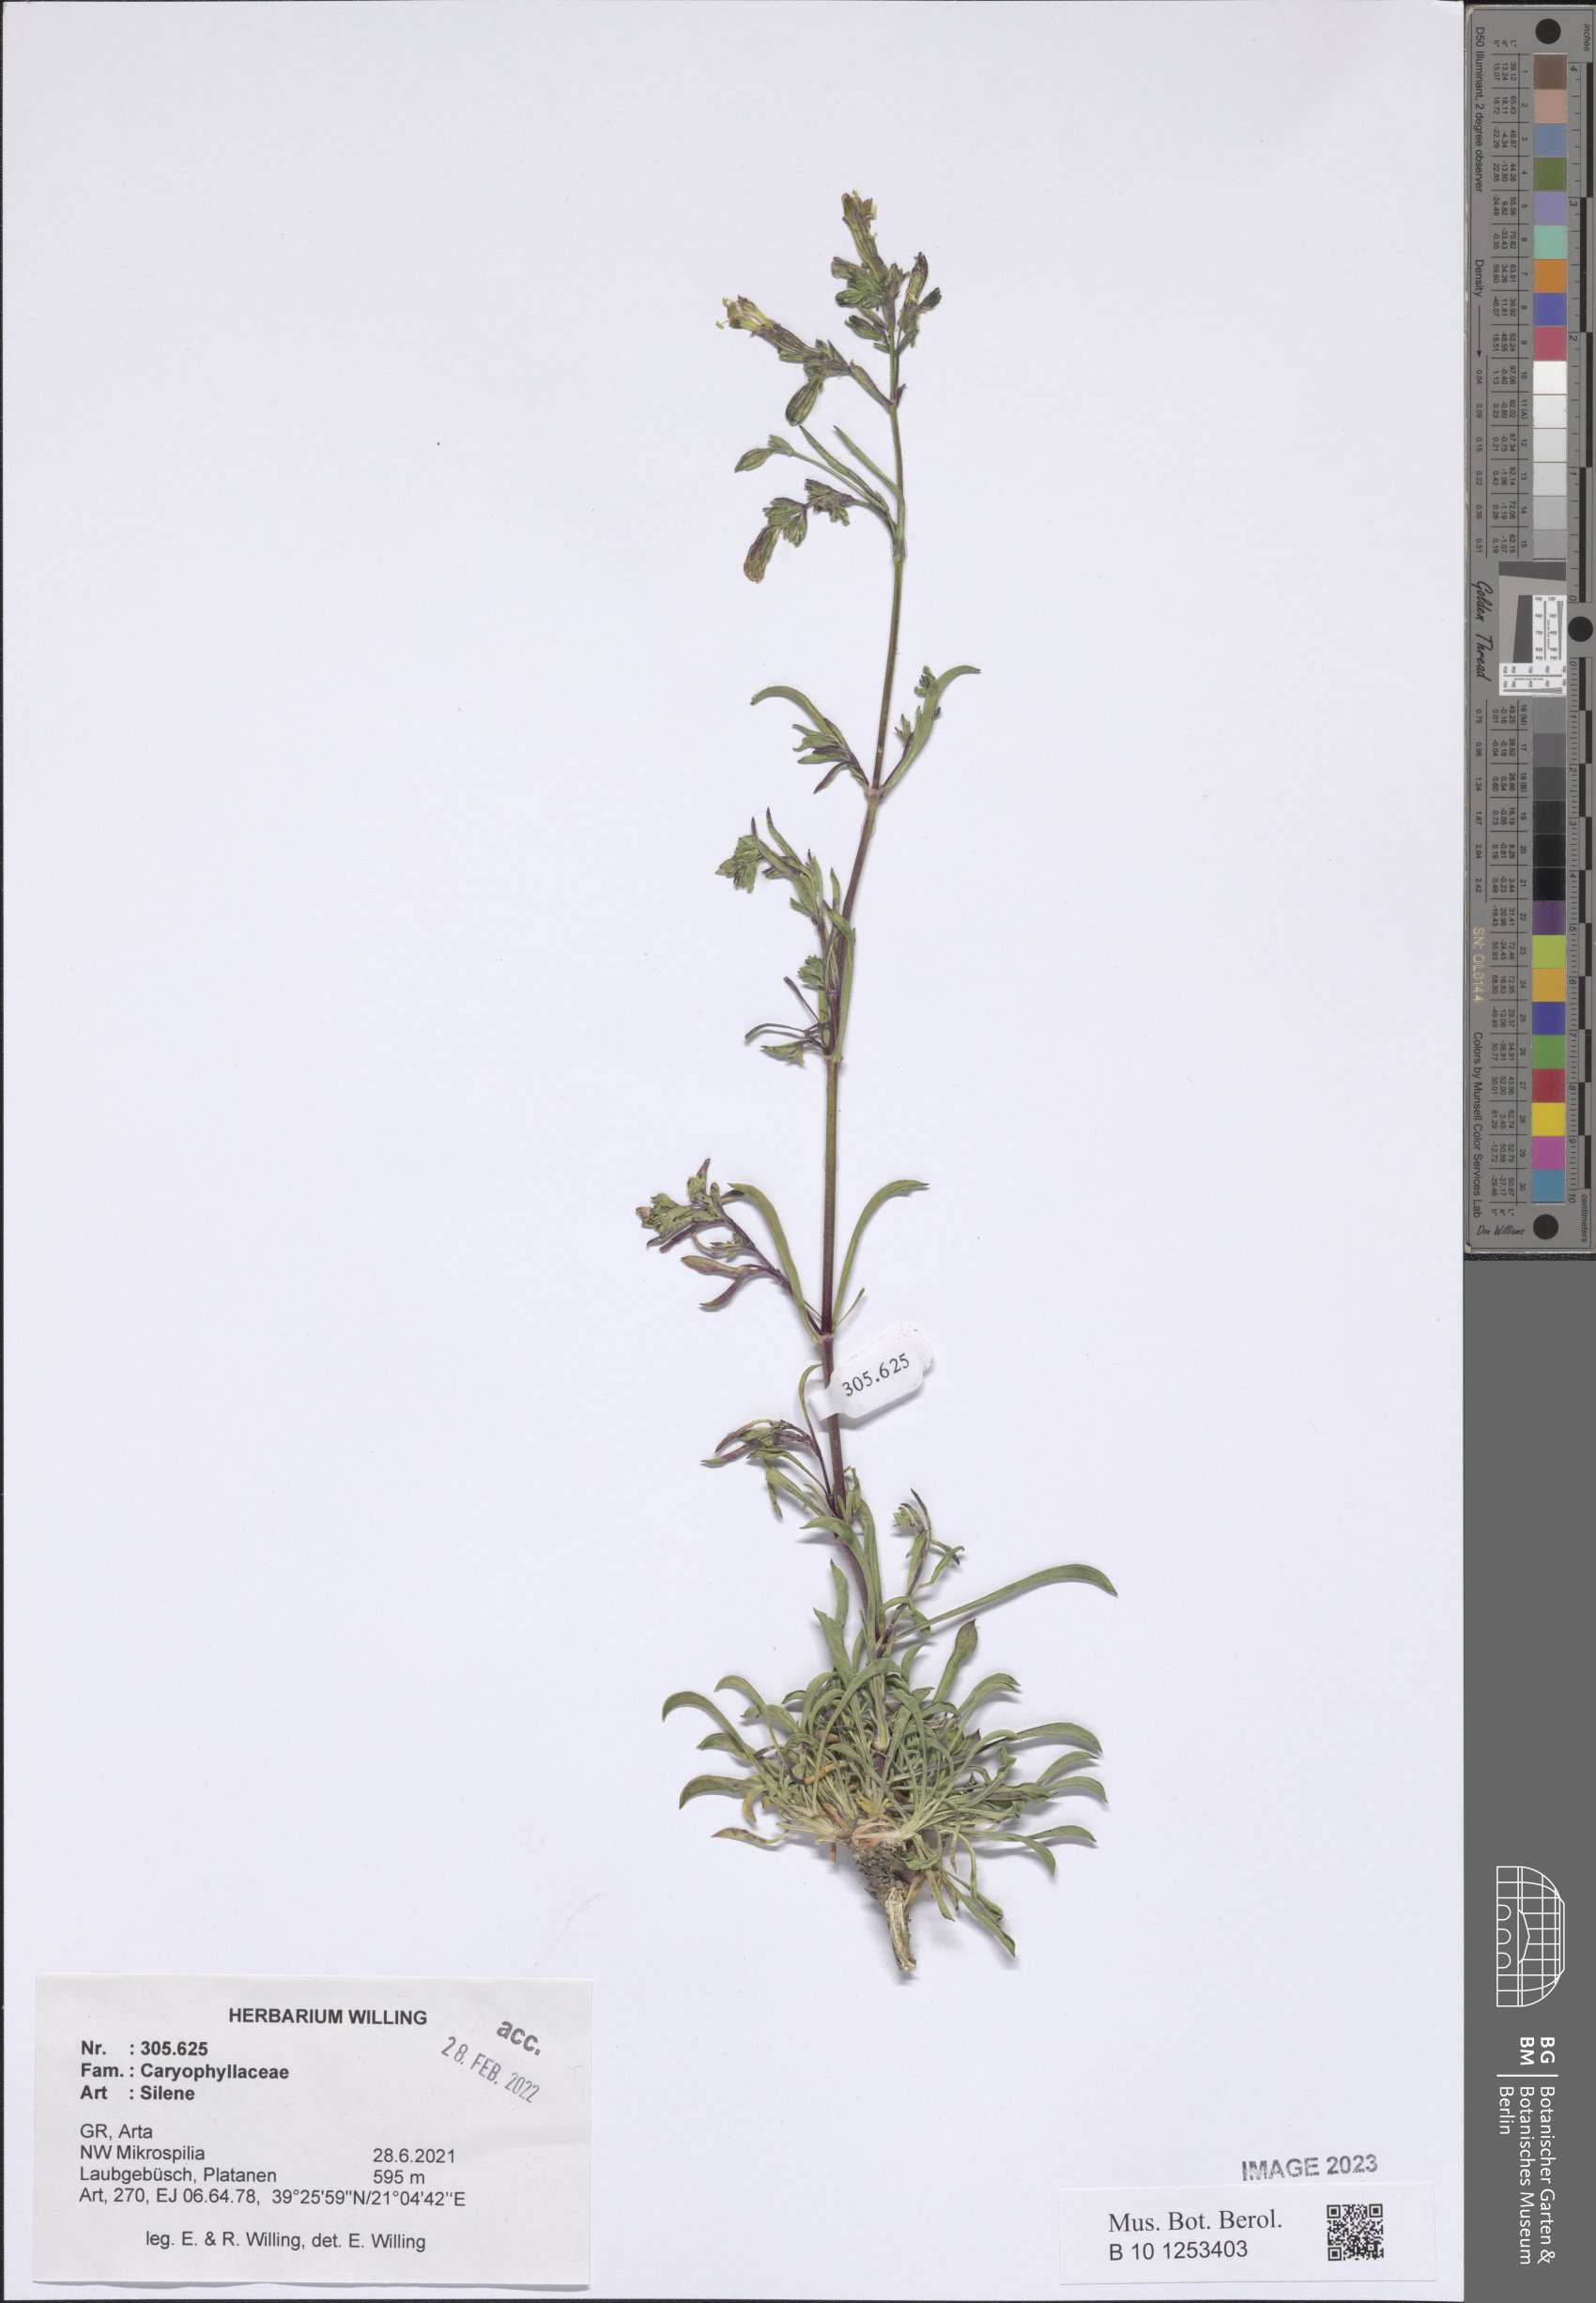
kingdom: Plantae
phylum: Tracheophyta
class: Magnoliopsida
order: Caryophyllales
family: Caryophyllaceae
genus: Silene
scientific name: Silene
